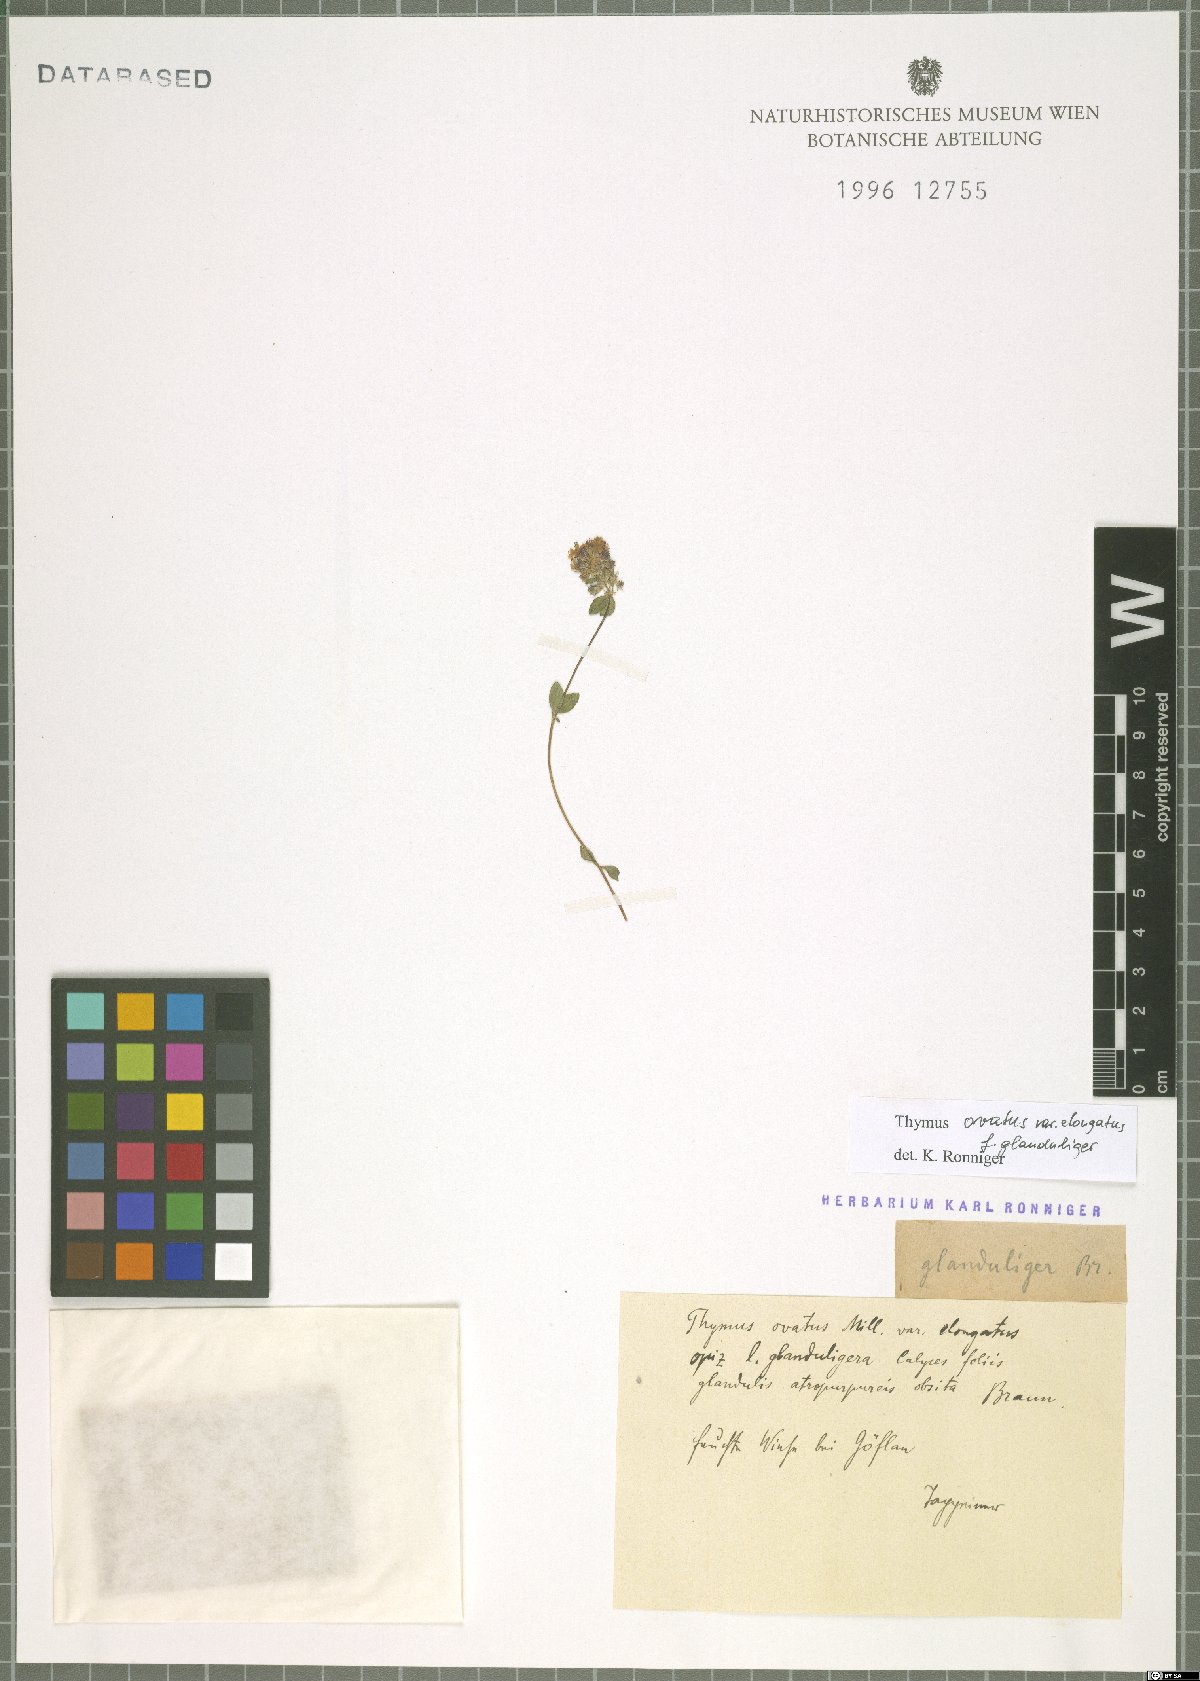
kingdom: Plantae
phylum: Tracheophyta
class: Magnoliopsida
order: Lamiales
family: Lamiaceae
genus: Thymus
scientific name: Thymus pulegioides
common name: Large thyme
